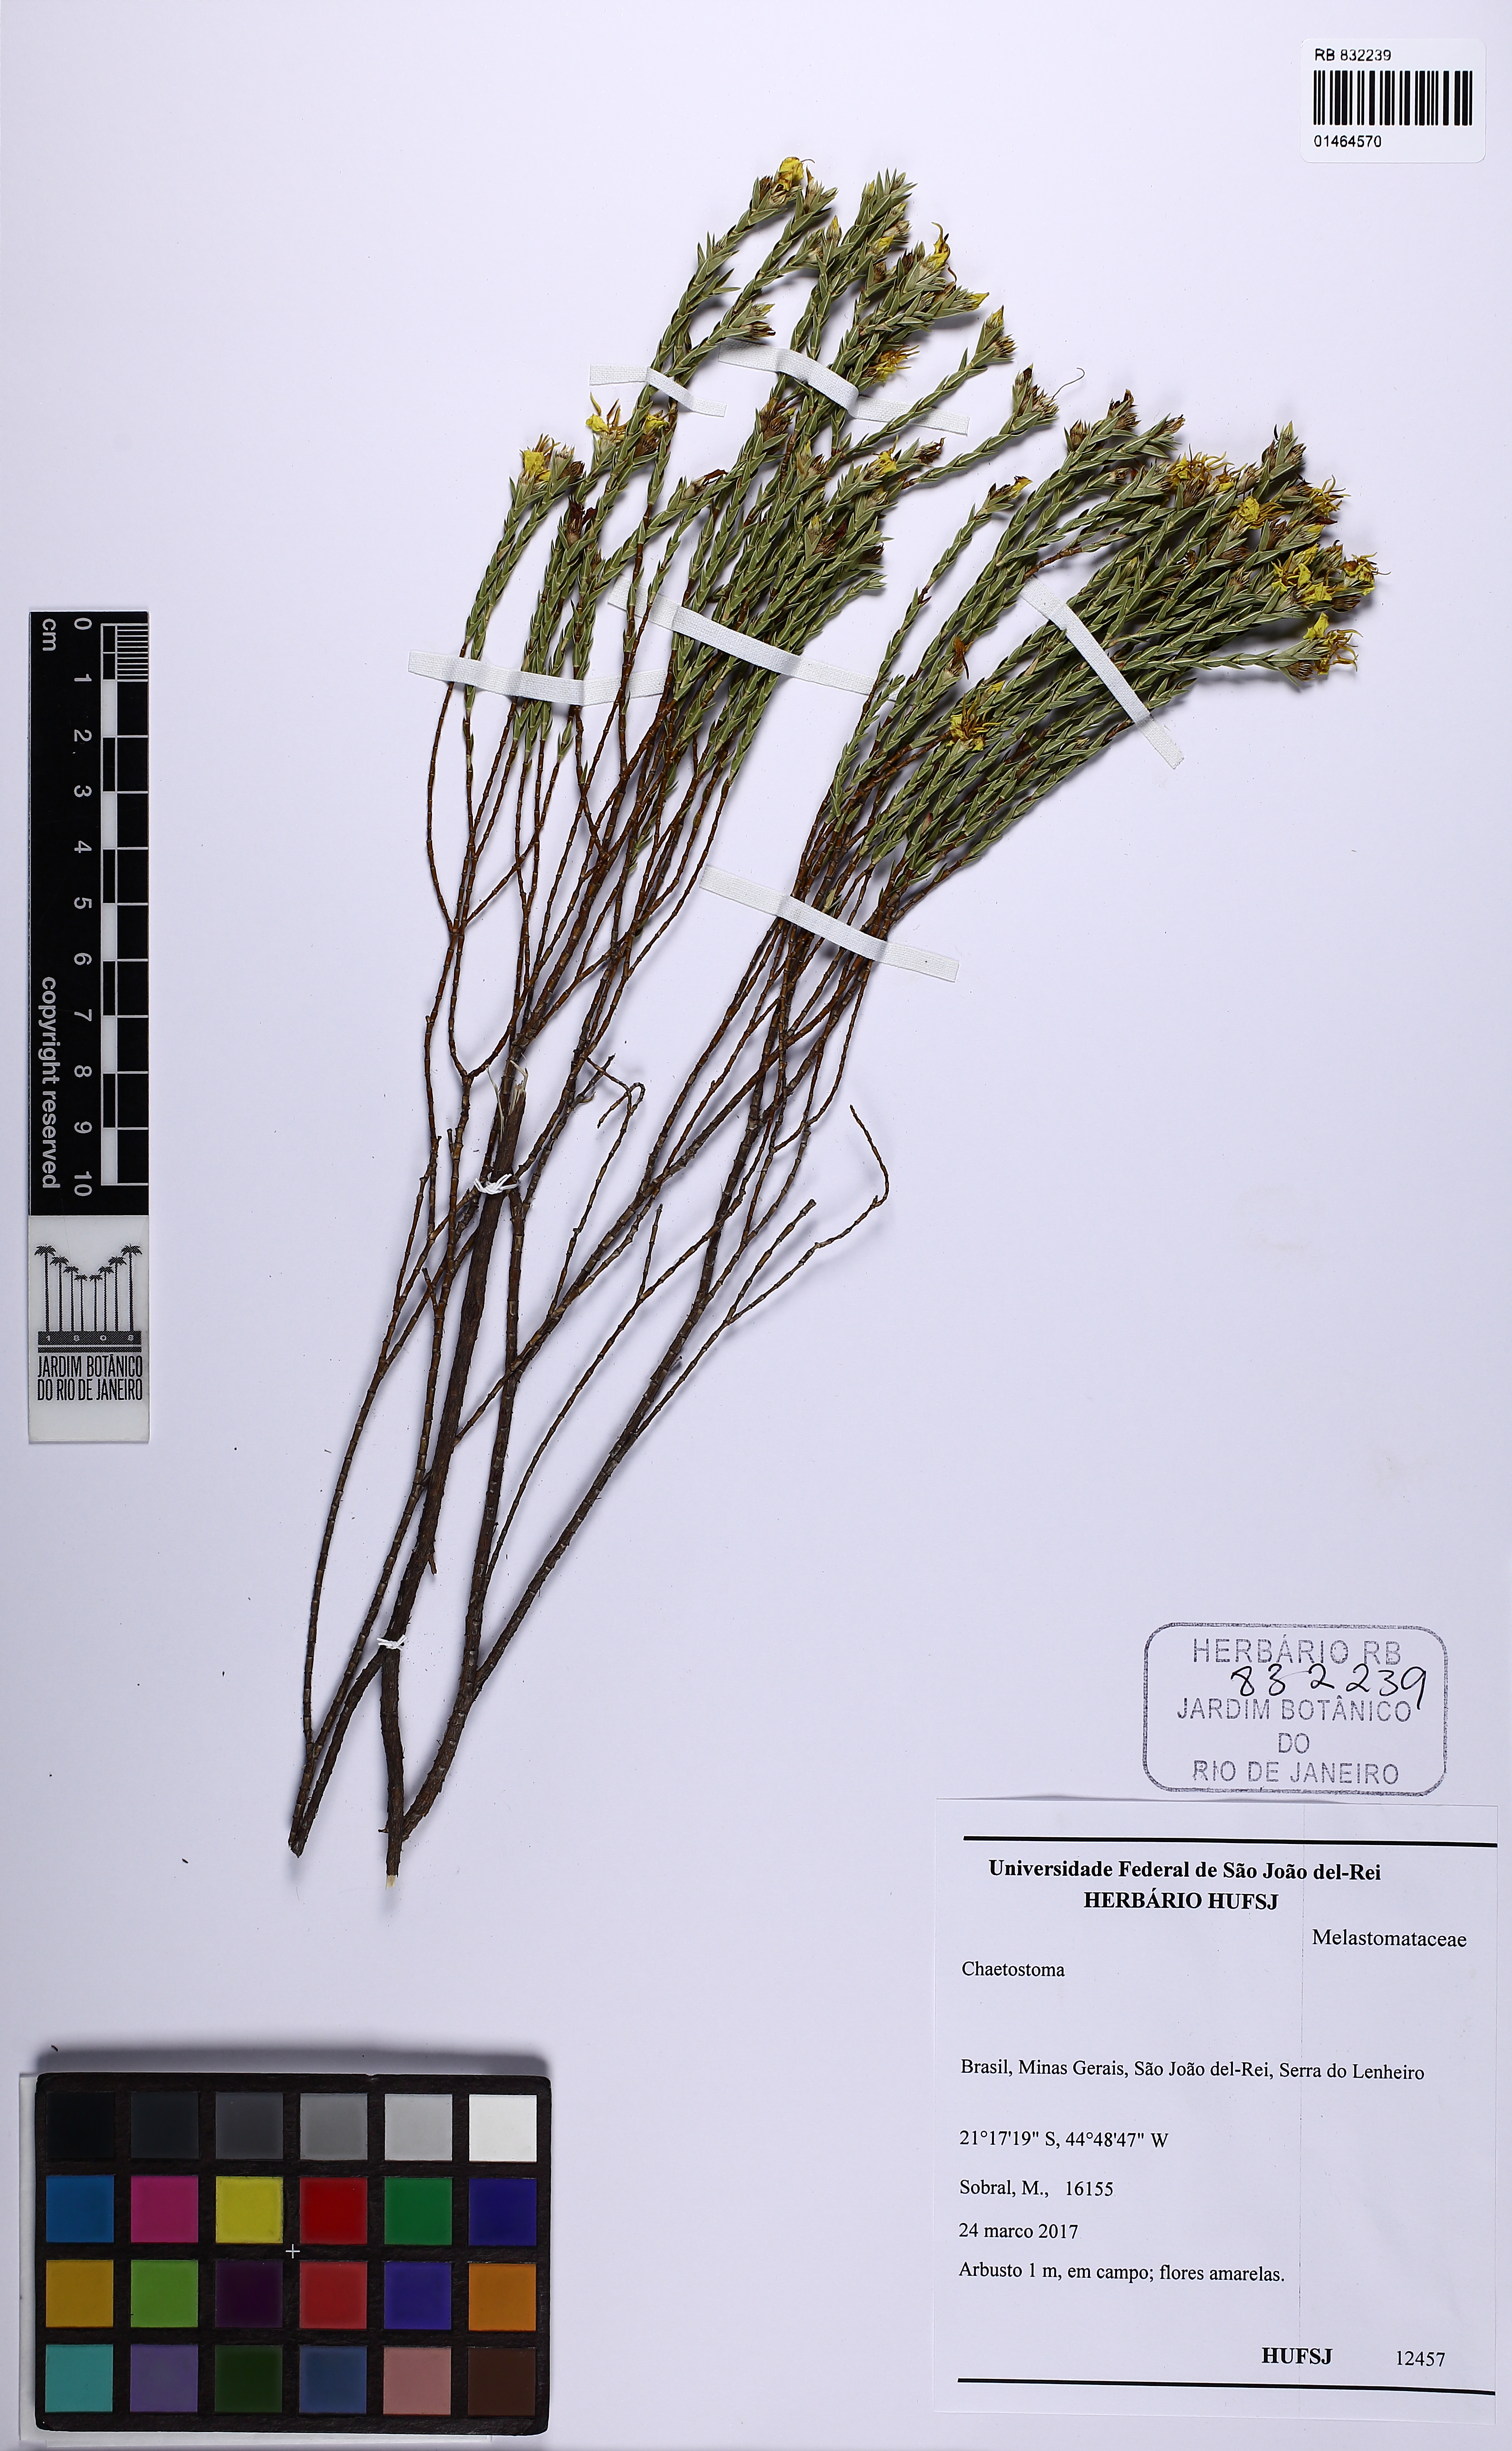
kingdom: Plantae
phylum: Tracheophyta
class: Magnoliopsida
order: Myrtales
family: Melastomataceae
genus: Microlicia
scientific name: Microlicia cupressina
